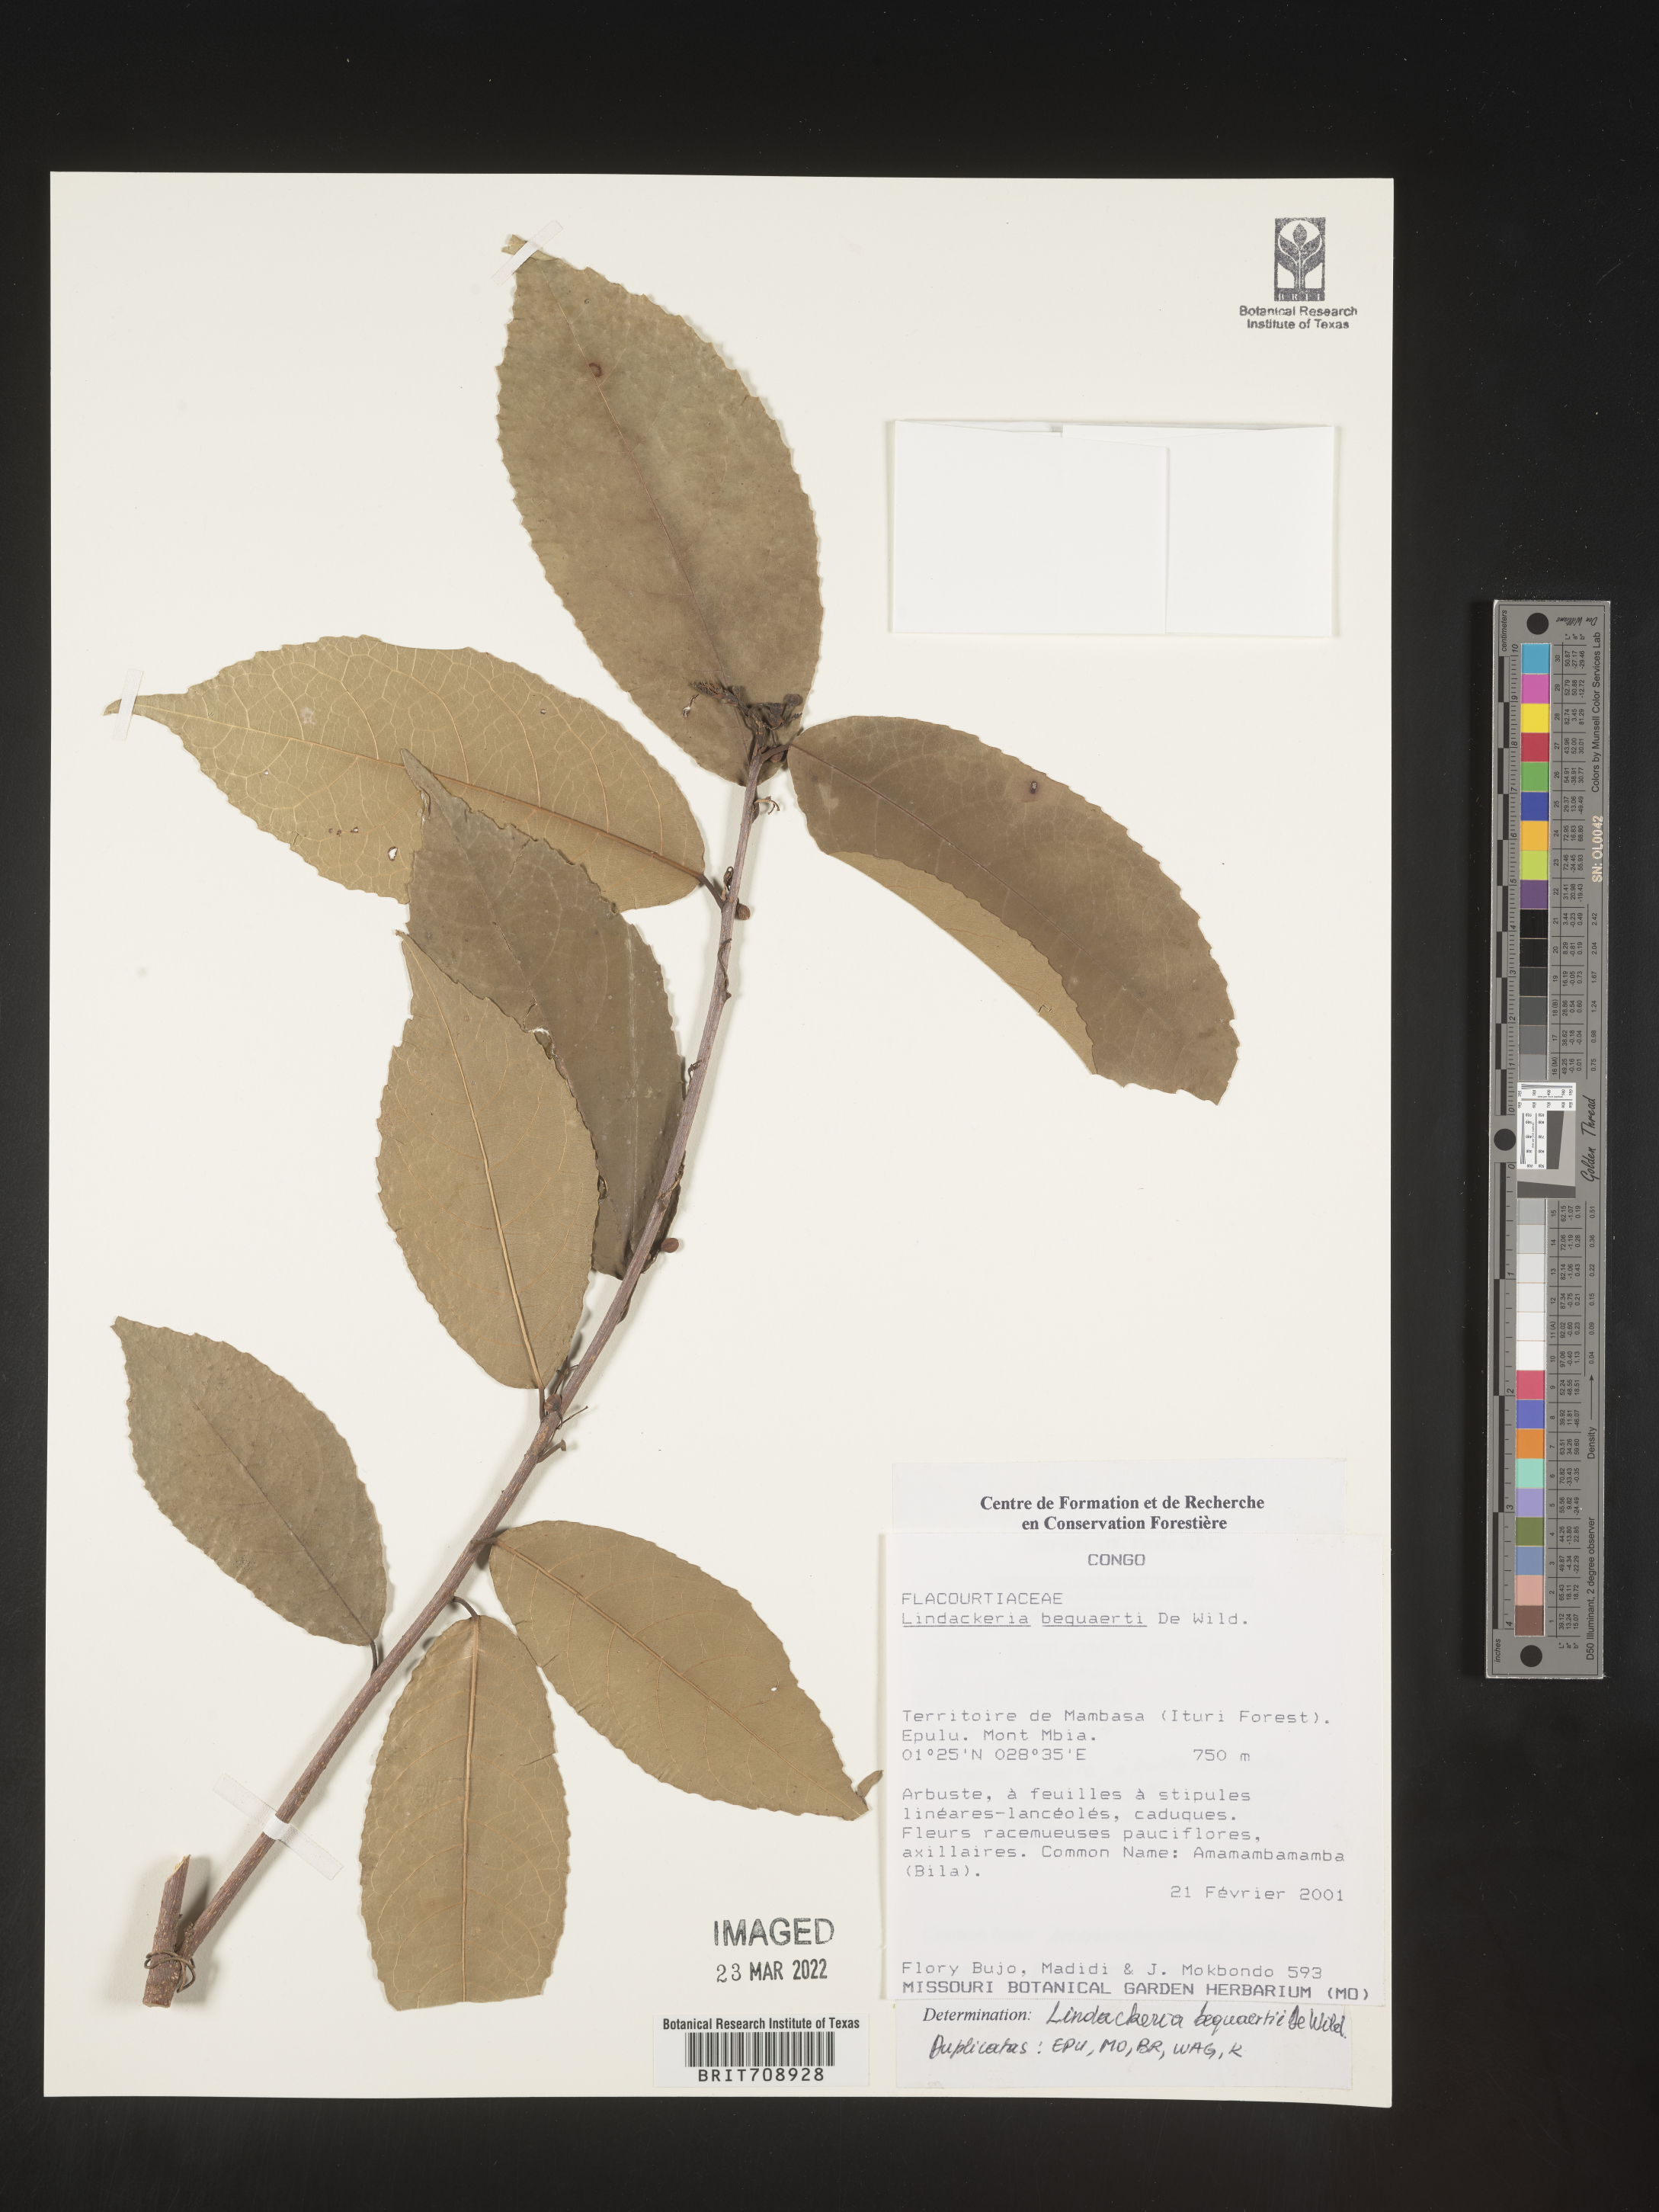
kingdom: Plantae
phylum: Tracheophyta
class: Magnoliopsida
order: Malpighiales
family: Achariaceae
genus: Lindackeria
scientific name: Lindackeria
